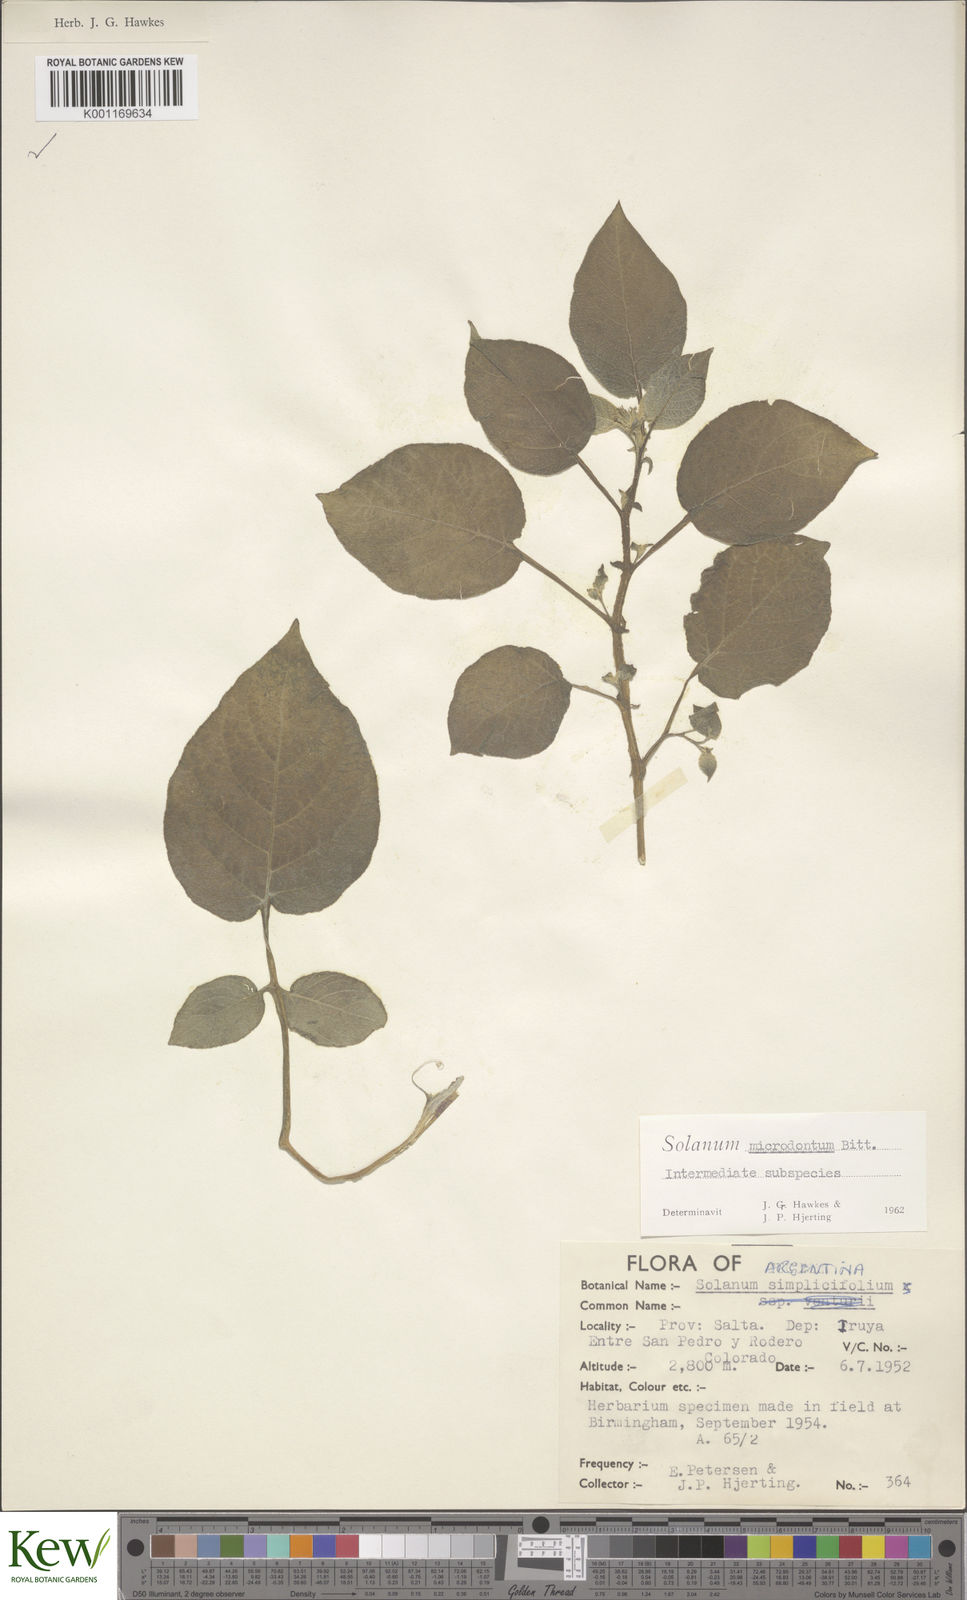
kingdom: Plantae
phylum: Tracheophyta
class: Magnoliopsida
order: Solanales
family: Solanaceae
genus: Solanum
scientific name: Solanum microdontum
